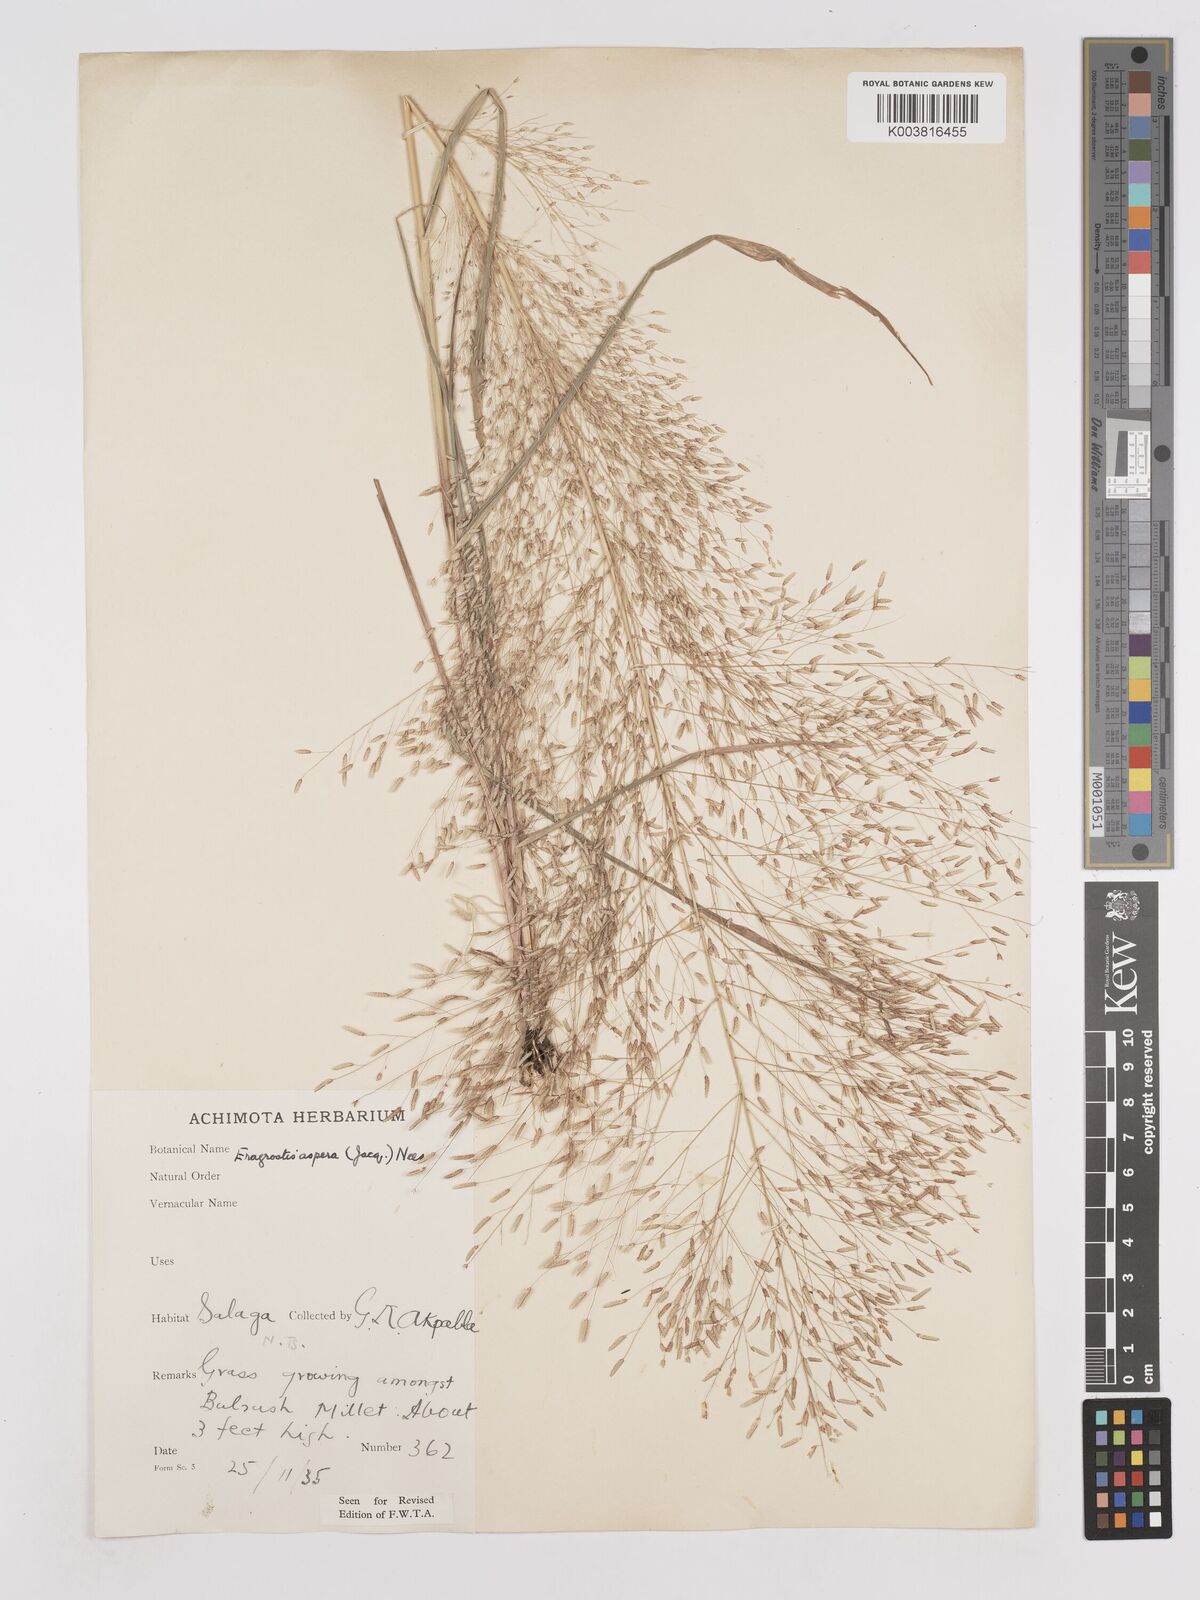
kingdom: Plantae
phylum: Tracheophyta
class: Liliopsida
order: Poales
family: Poaceae
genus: Eragrostis
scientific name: Eragrostis aspera
